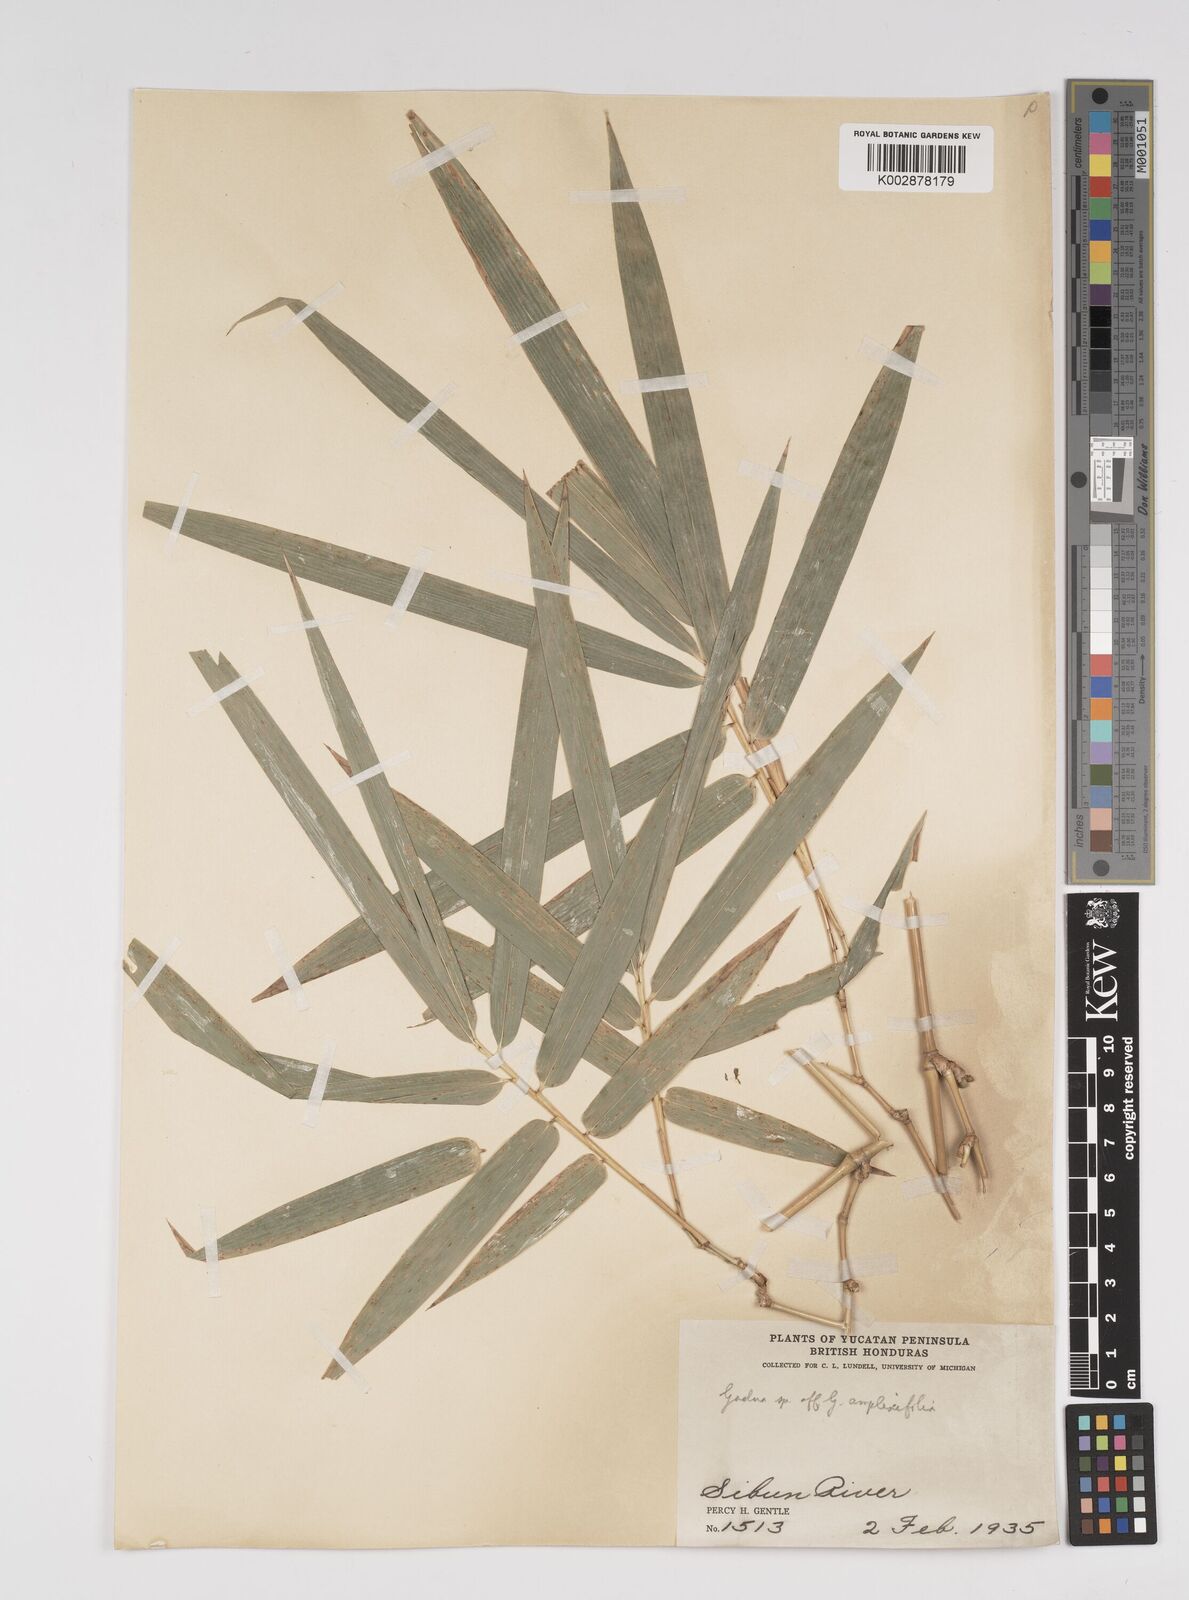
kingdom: Plantae
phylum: Tracheophyta
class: Liliopsida
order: Poales
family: Poaceae
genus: Guadua
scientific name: Guadua amplexifolia
